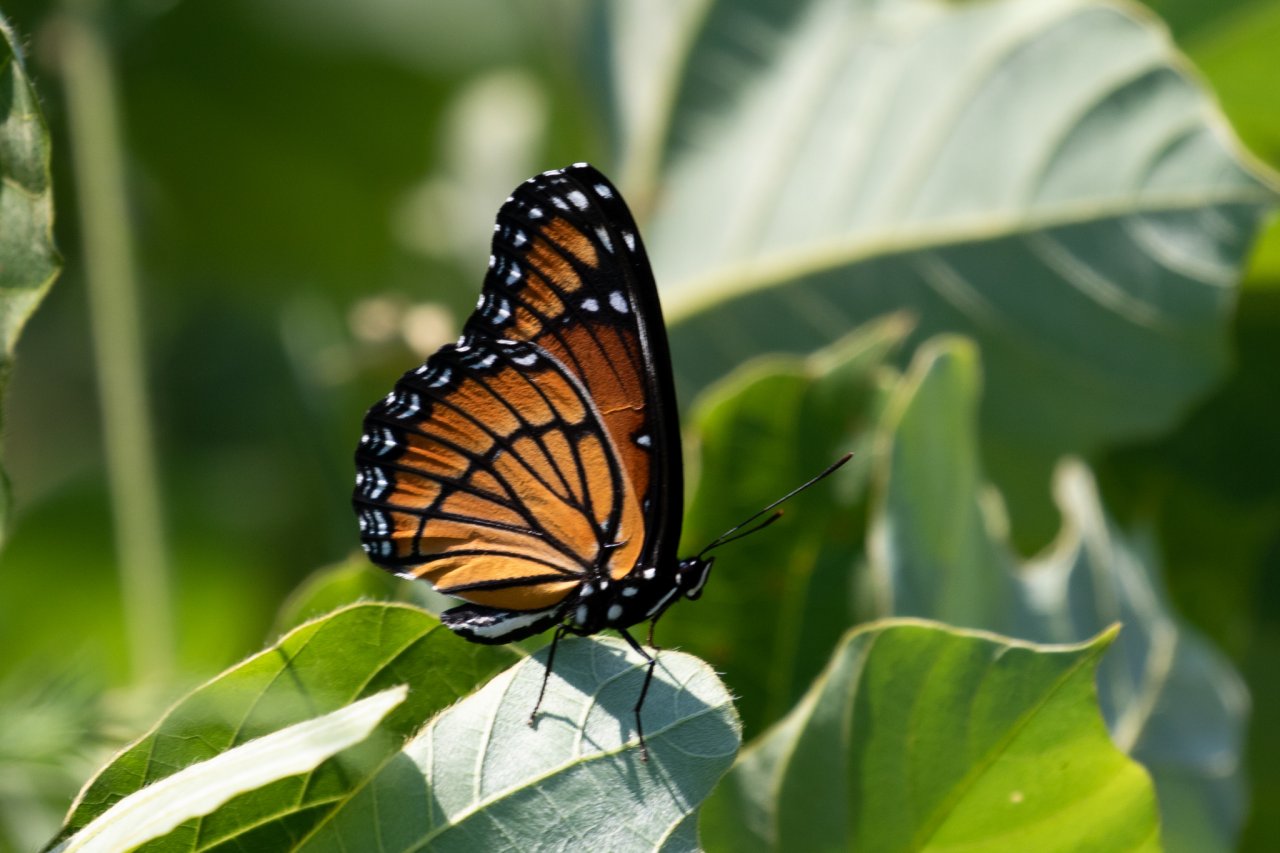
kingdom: Animalia
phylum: Arthropoda
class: Insecta
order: Lepidoptera
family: Nymphalidae
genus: Limenitis
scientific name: Limenitis archippus
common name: Viceroy
